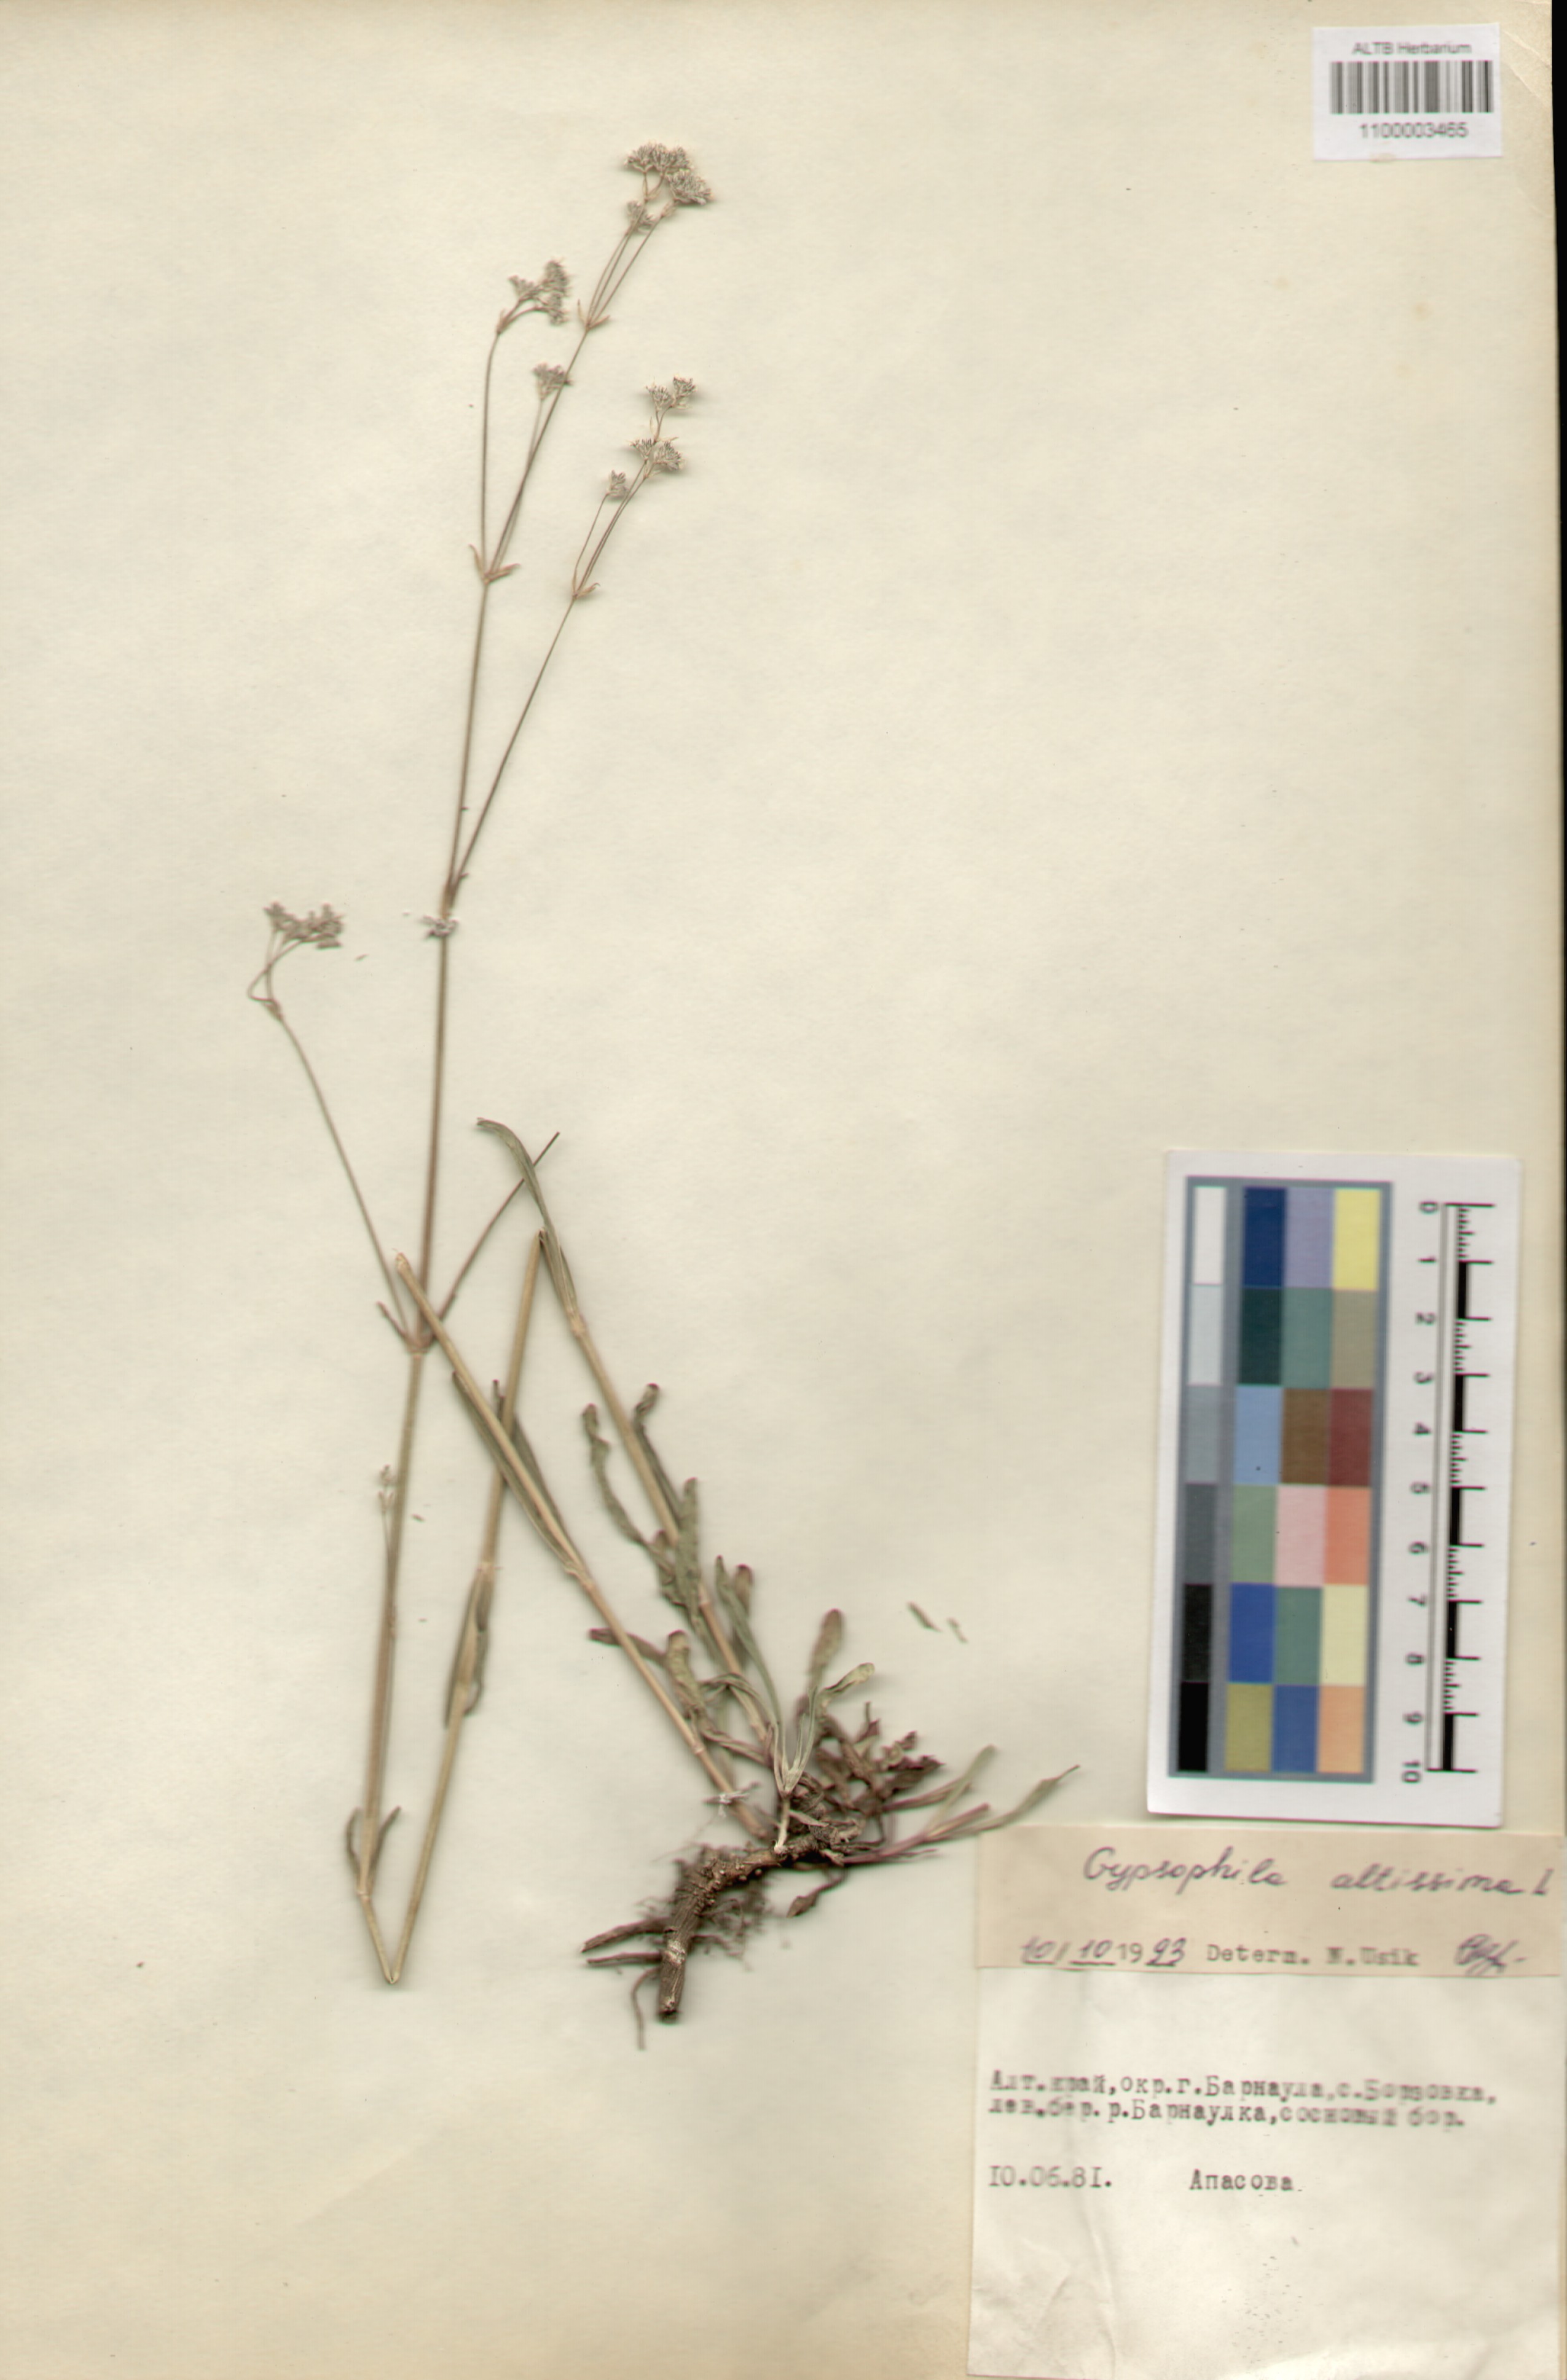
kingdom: Plantae
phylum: Tracheophyta
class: Magnoliopsida
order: Caryophyllales
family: Caryophyllaceae
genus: Gypsophila
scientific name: Gypsophila altissima
